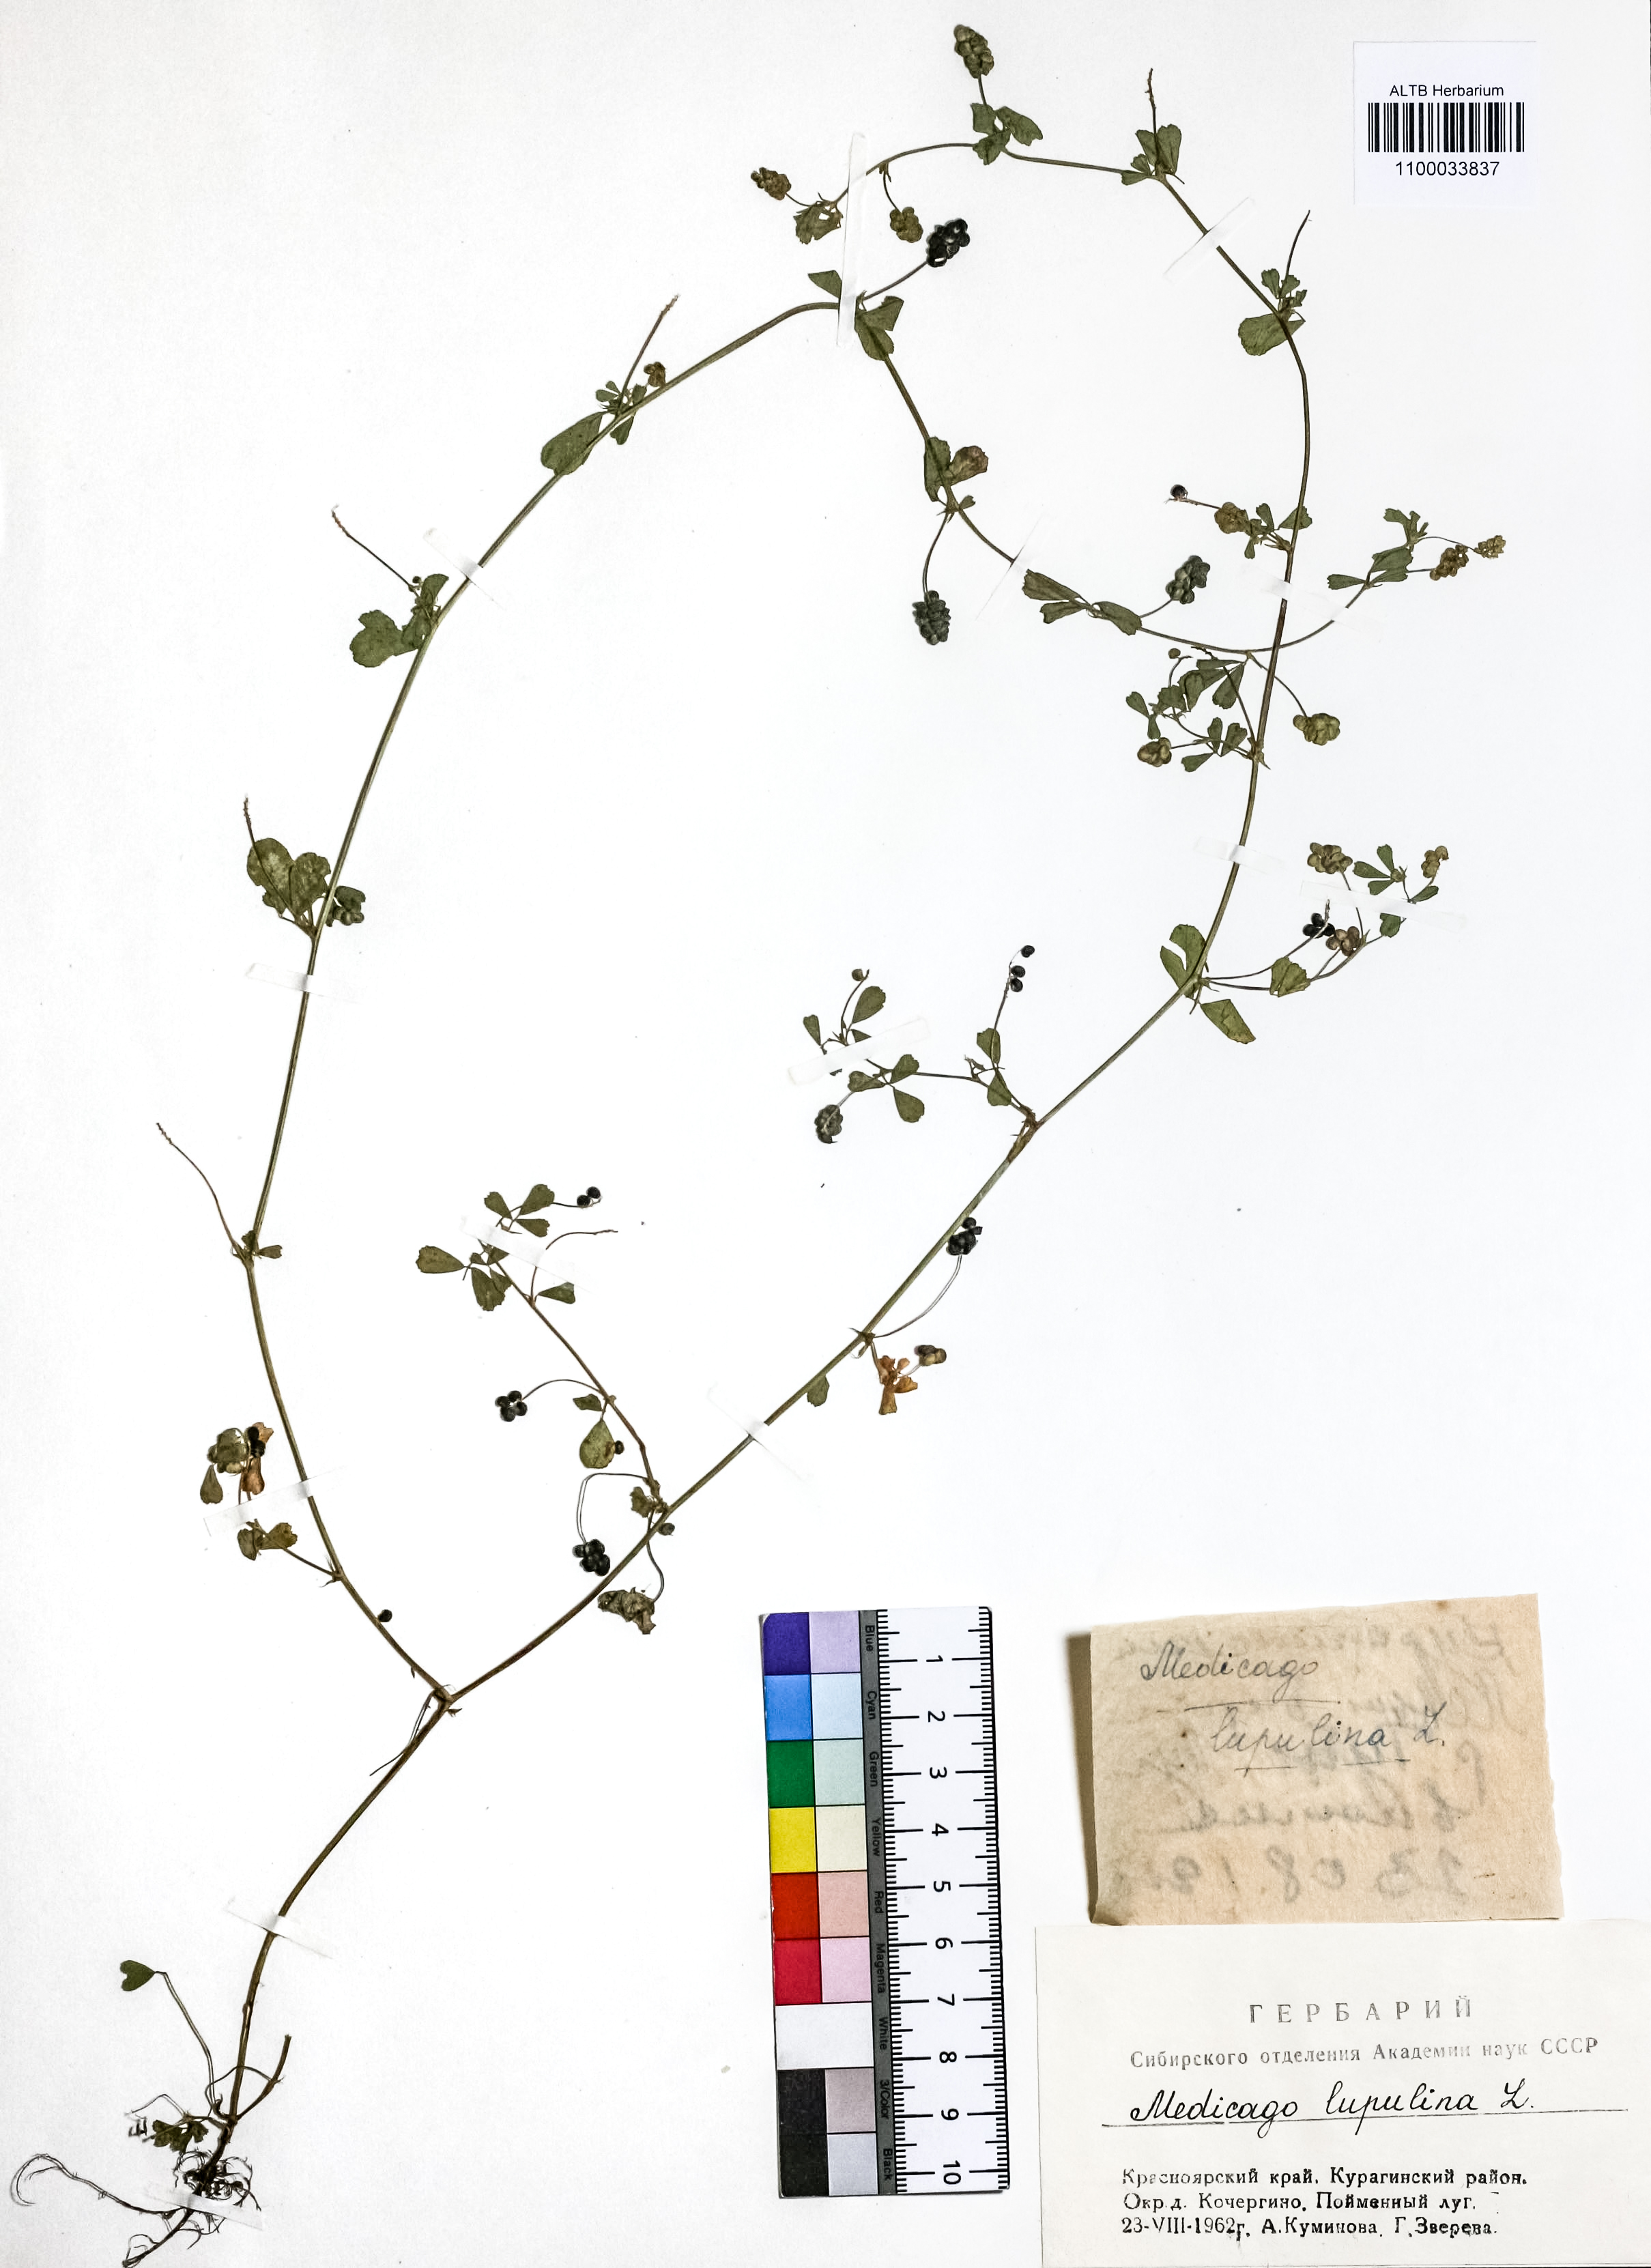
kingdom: Plantae
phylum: Tracheophyta
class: Magnoliopsida
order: Fabales
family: Fabaceae
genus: Medicago
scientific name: Medicago lupulina
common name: Black medick
